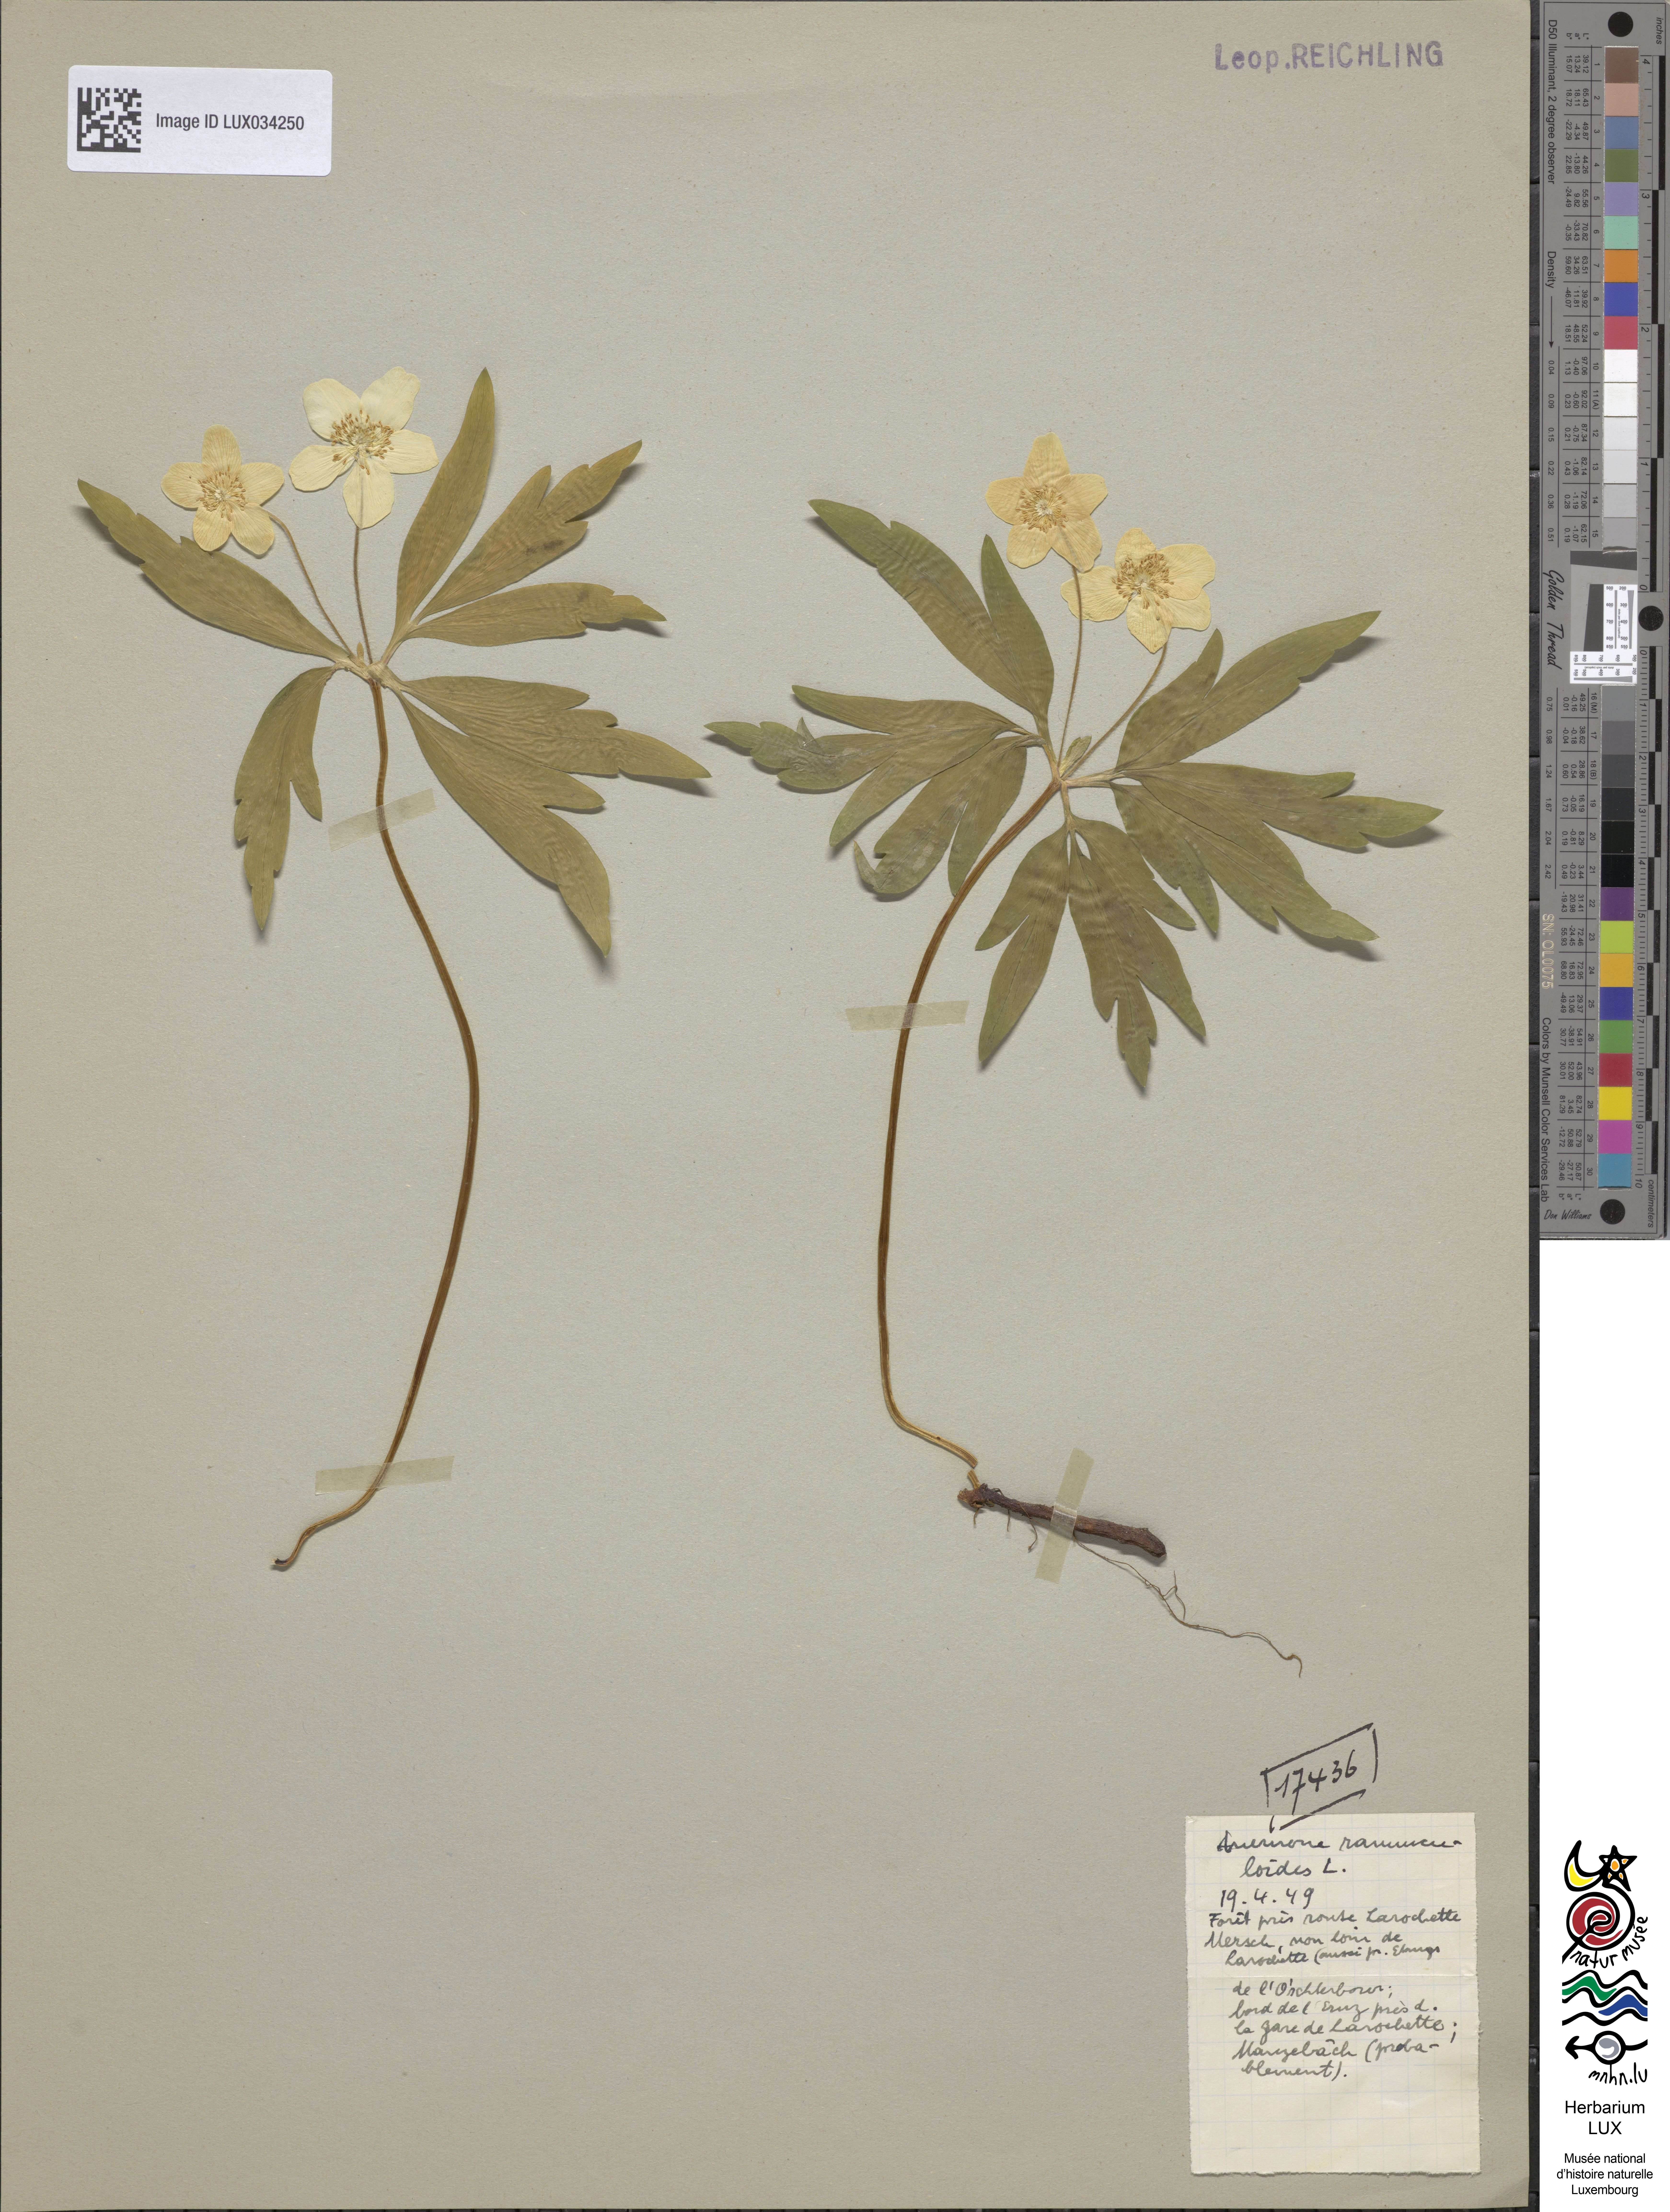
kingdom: Plantae
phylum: Tracheophyta
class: Magnoliopsida
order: Ranunculales
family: Ranunculaceae
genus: Anemone
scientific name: Anemone ranunculoides
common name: Yellow anemone
